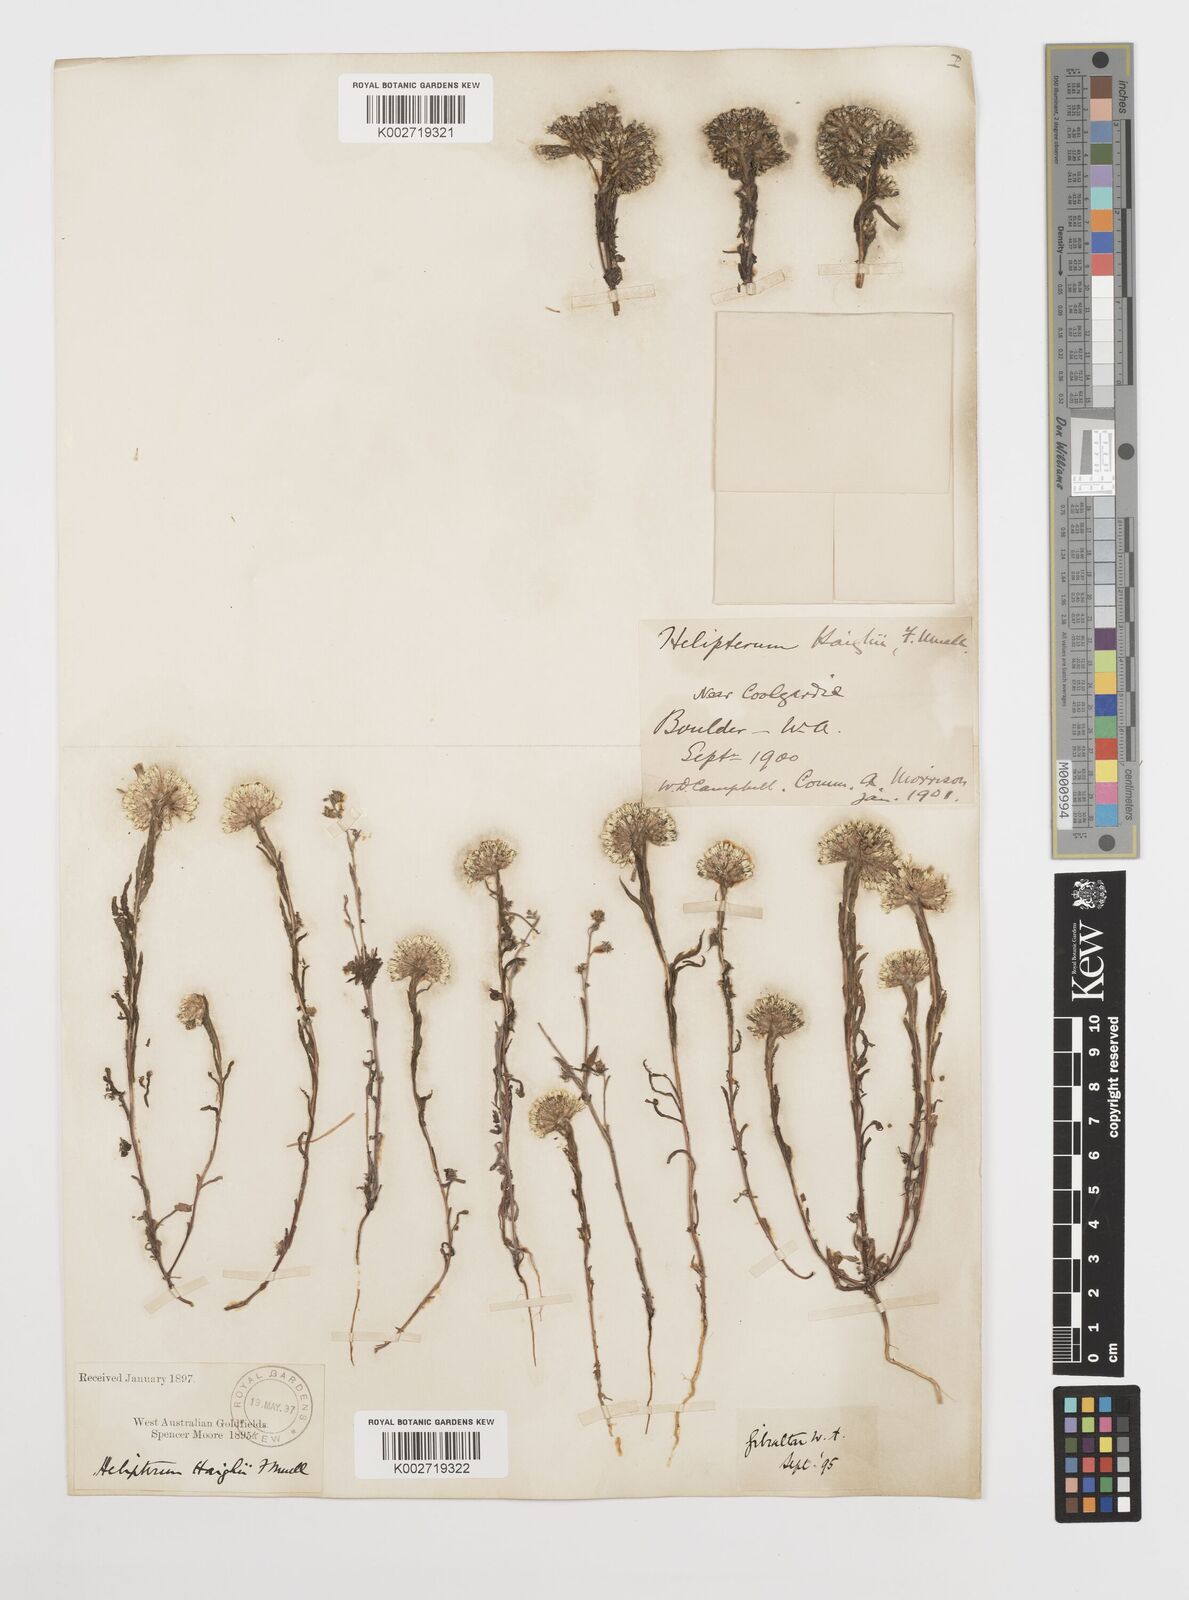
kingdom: Plantae
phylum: Tracheophyta
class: Magnoliopsida
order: Asterales
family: Asteraceae
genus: Rhodanthe
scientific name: Rhodanthe haigii
